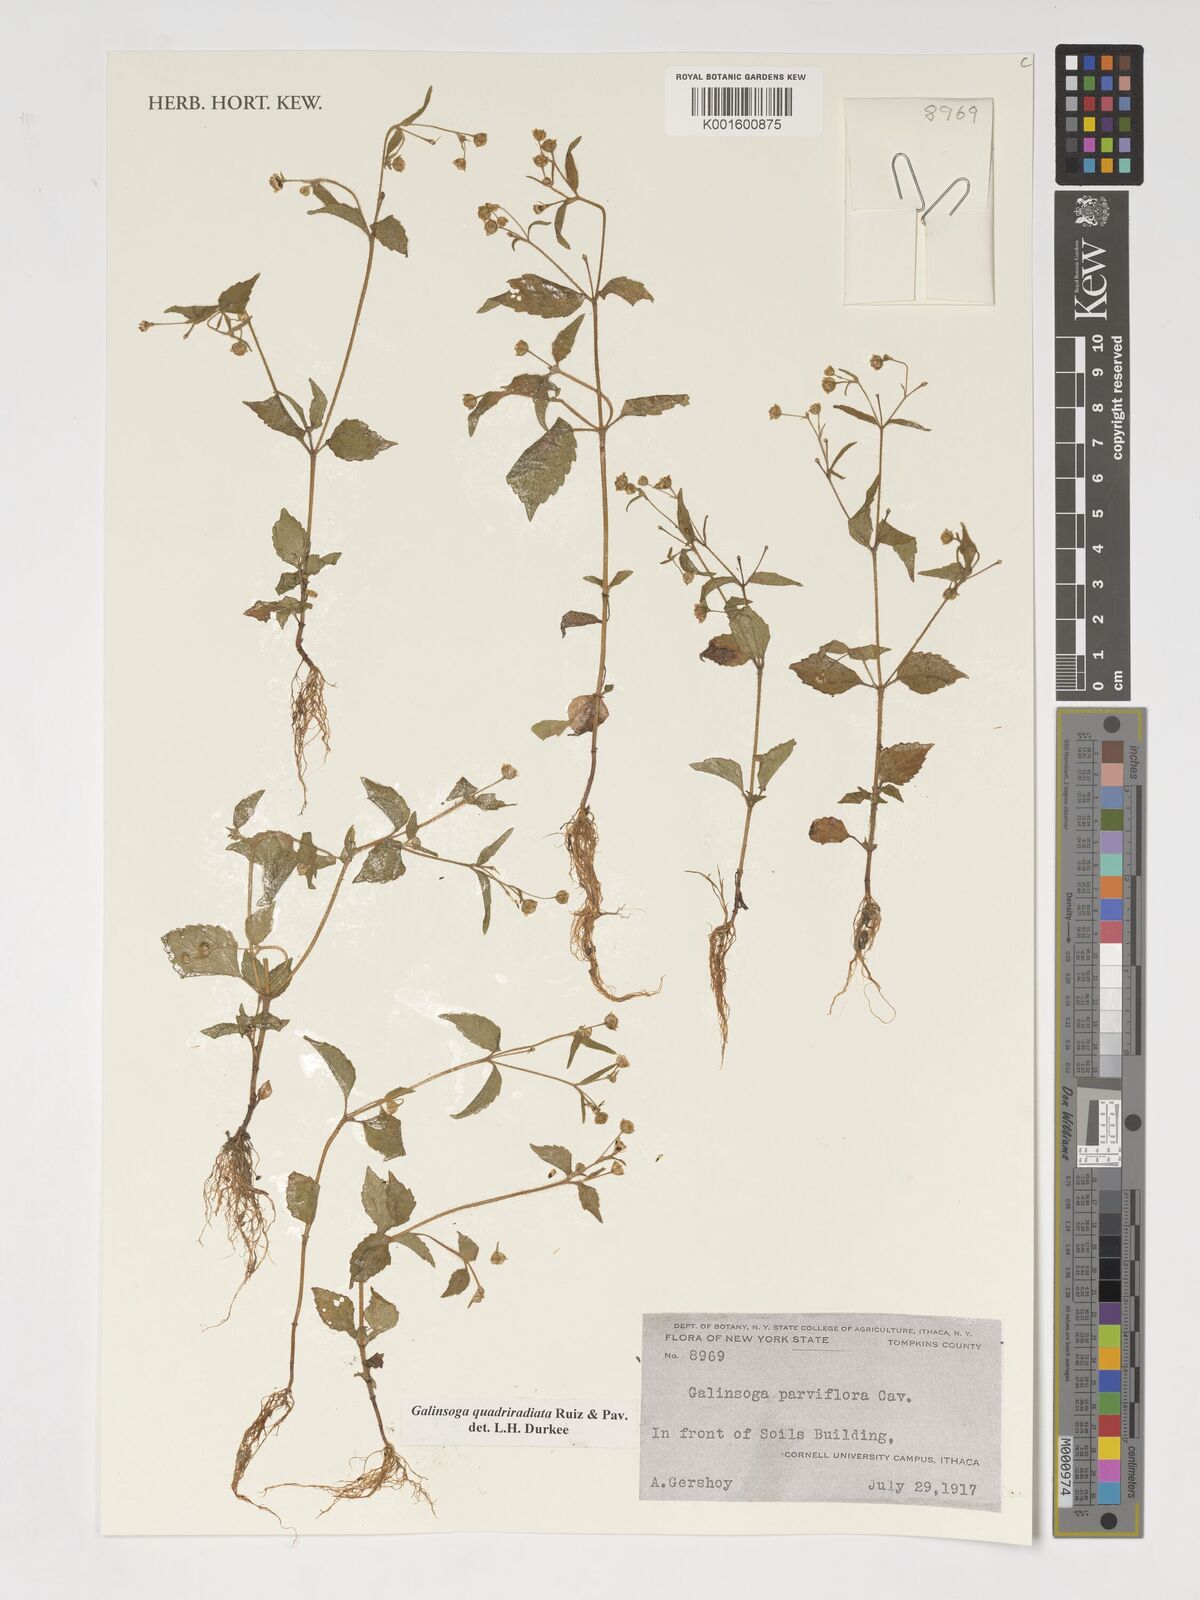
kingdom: Plantae
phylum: Tracheophyta
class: Magnoliopsida
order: Asterales
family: Asteraceae
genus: Galinsoga
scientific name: Galinsoga parviflora
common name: Gallant soldier
